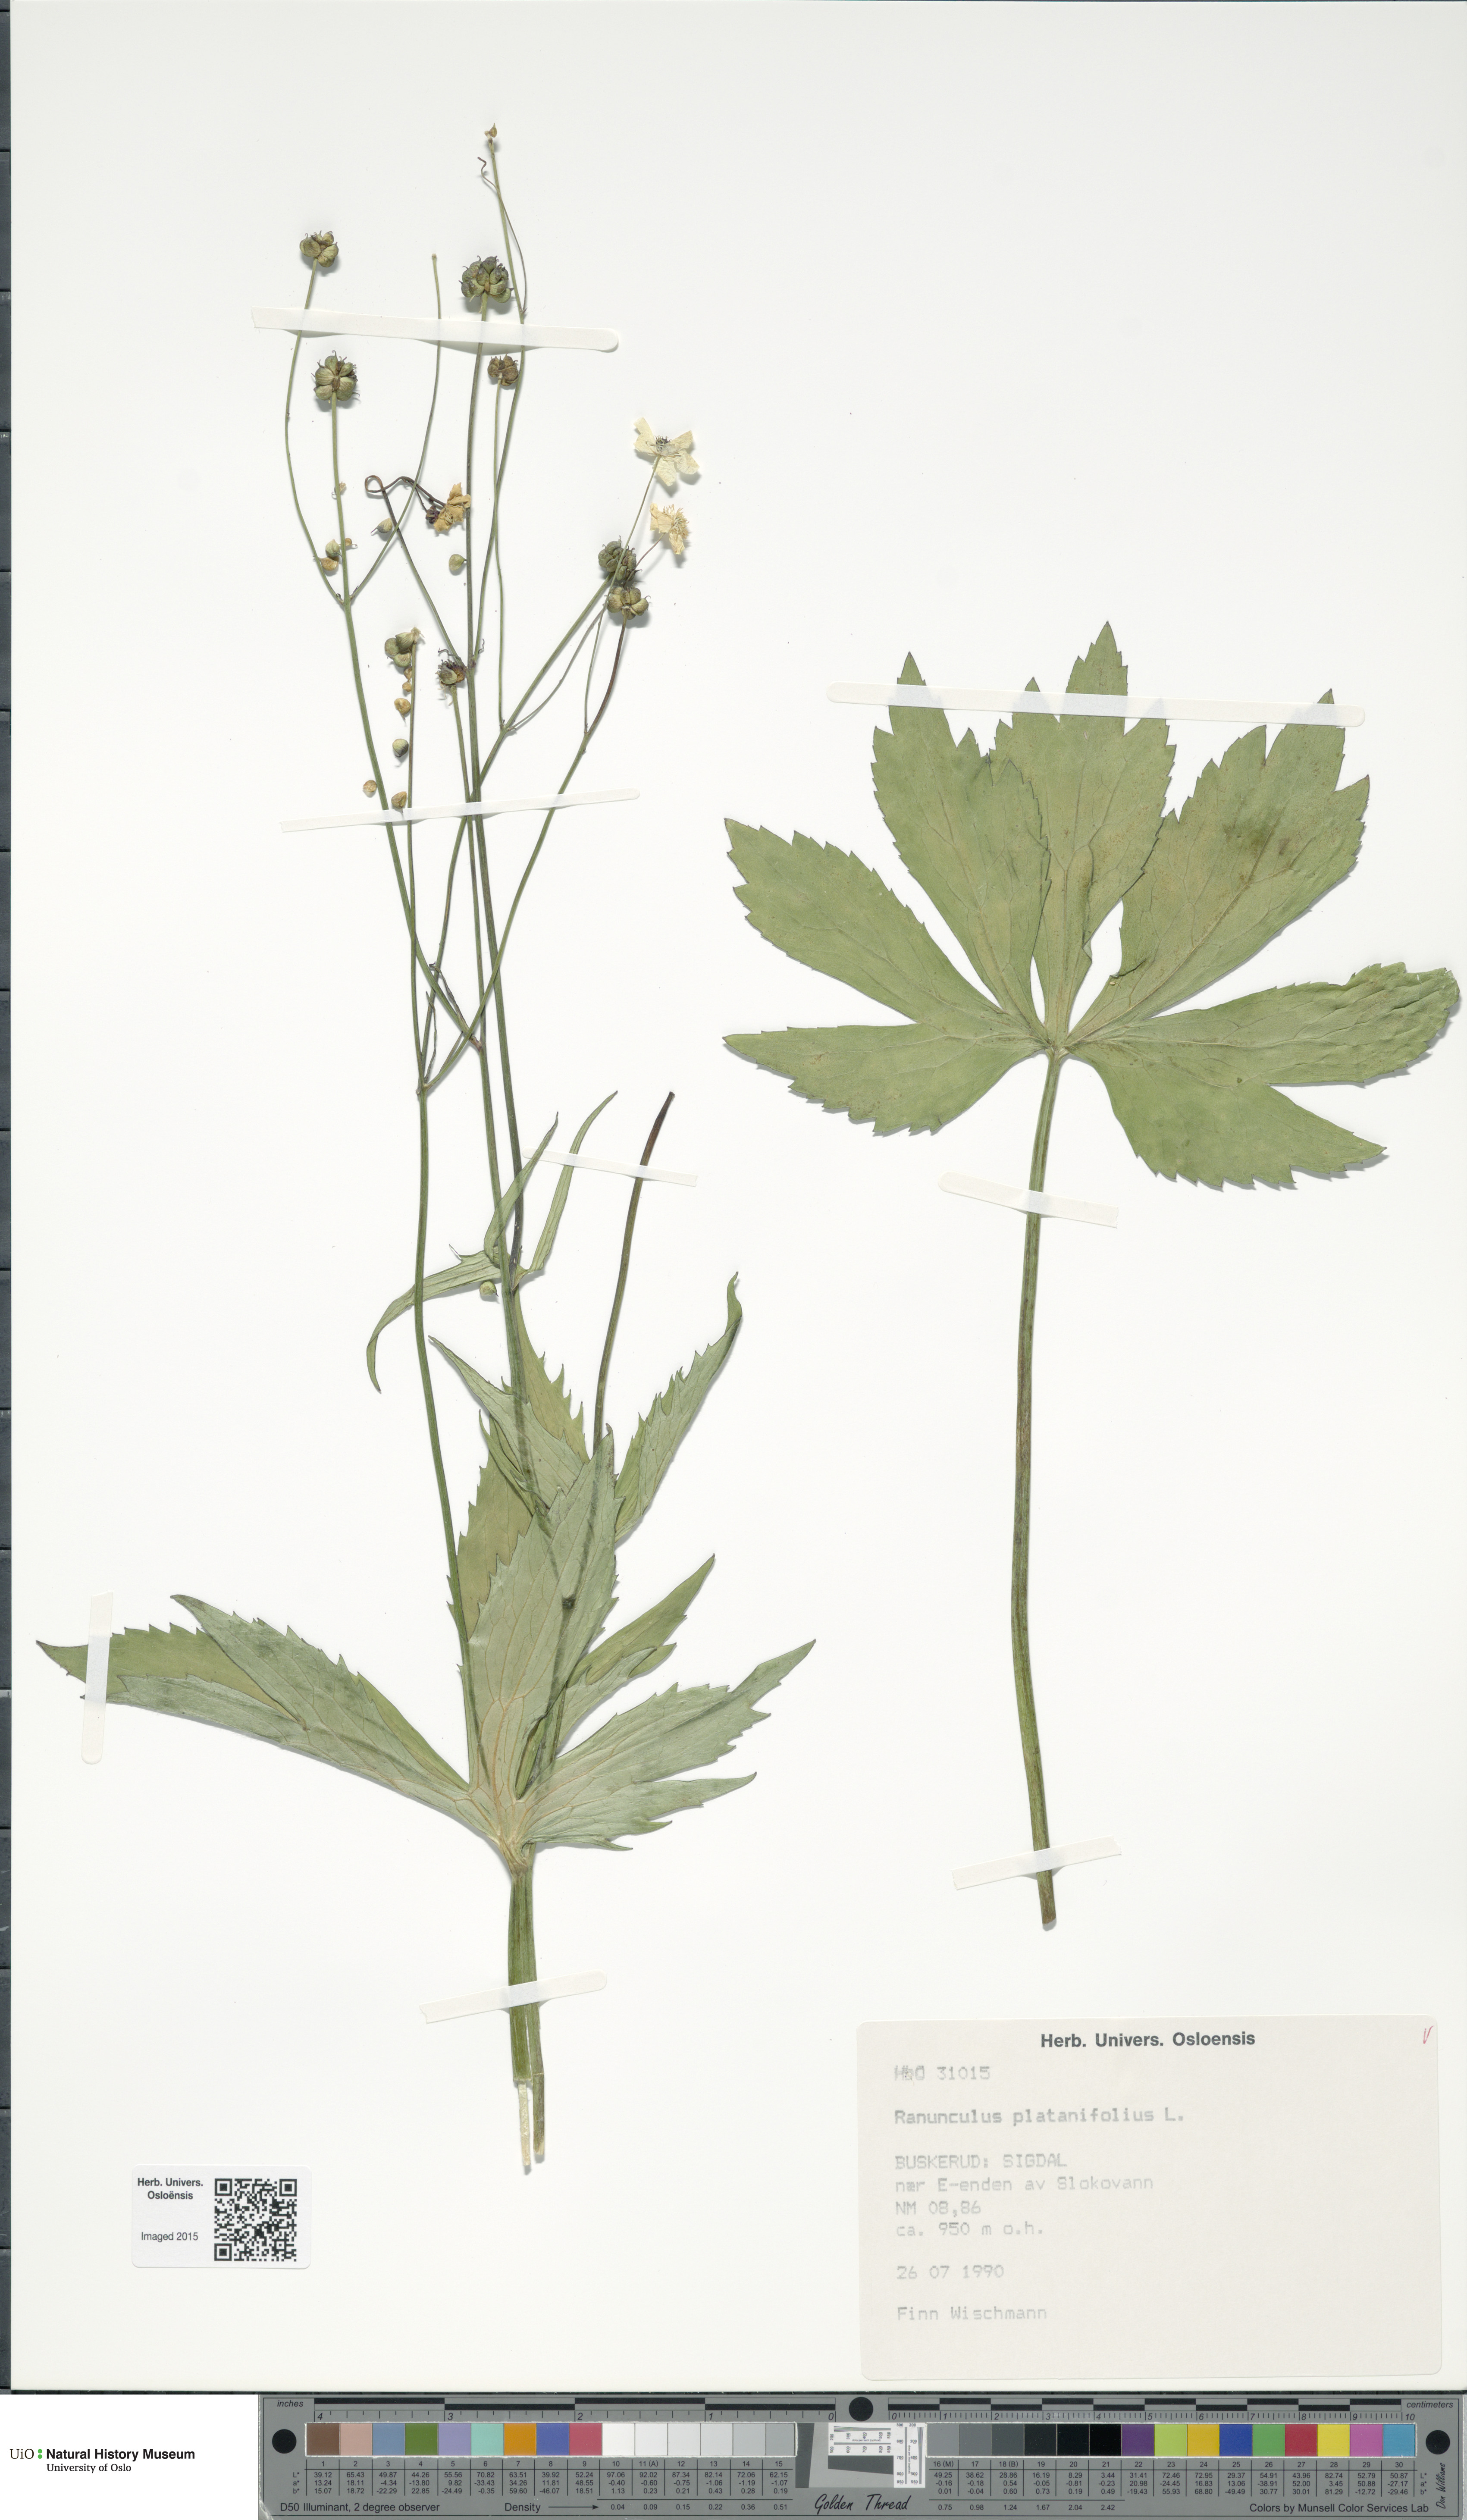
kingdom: Plantae
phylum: Tracheophyta
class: Magnoliopsida
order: Ranunculales
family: Ranunculaceae
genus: Ranunculus
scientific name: Ranunculus platanifolius
